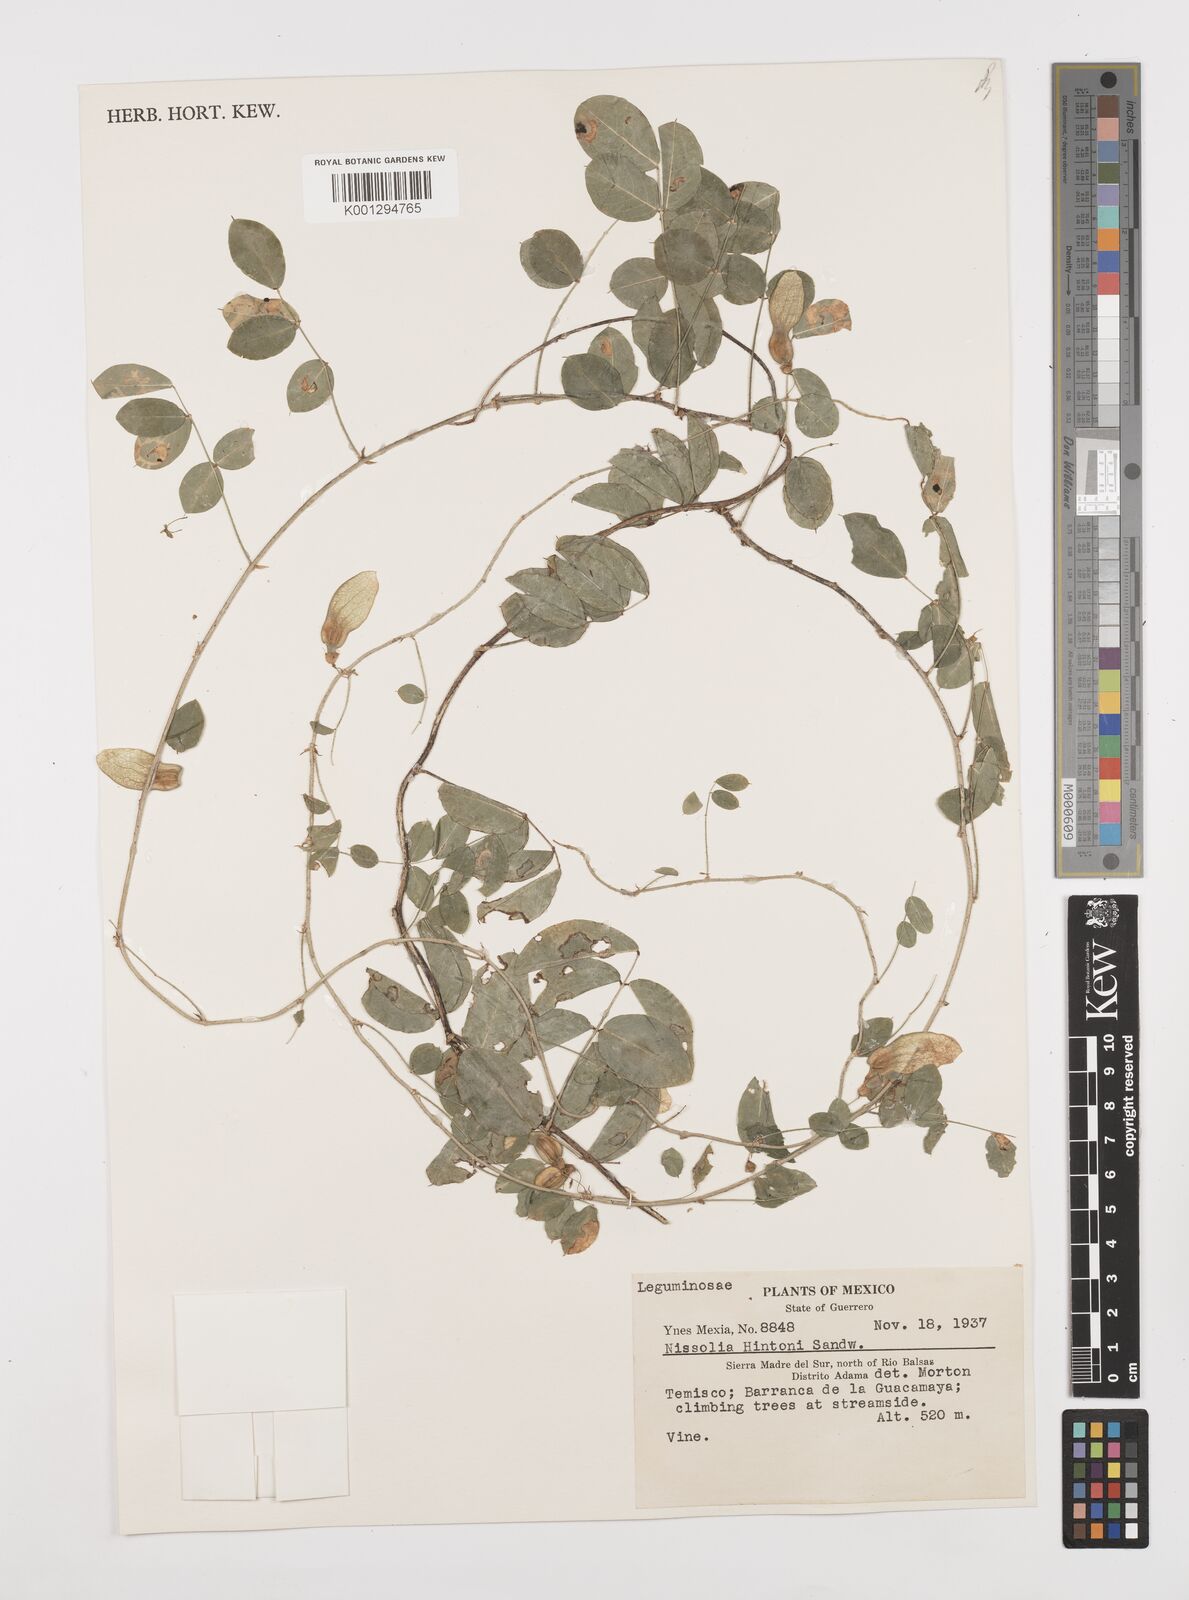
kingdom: Plantae
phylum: Tracheophyta
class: Magnoliopsida
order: Fabales
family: Fabaceae
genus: Nissolia
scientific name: Nissolia hintonii
